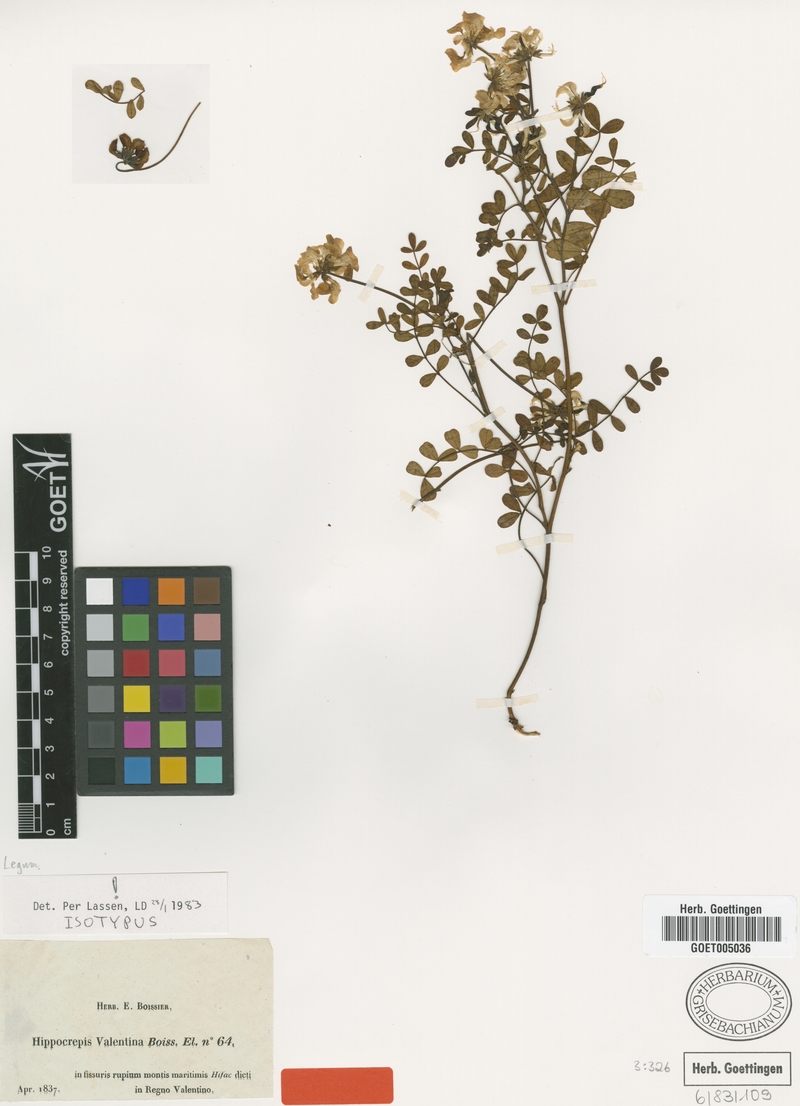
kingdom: Plantae
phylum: Tracheophyta
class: Magnoliopsida
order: Fabales
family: Fabaceae
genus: Hippocrepis
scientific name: Hippocrepis valentina
